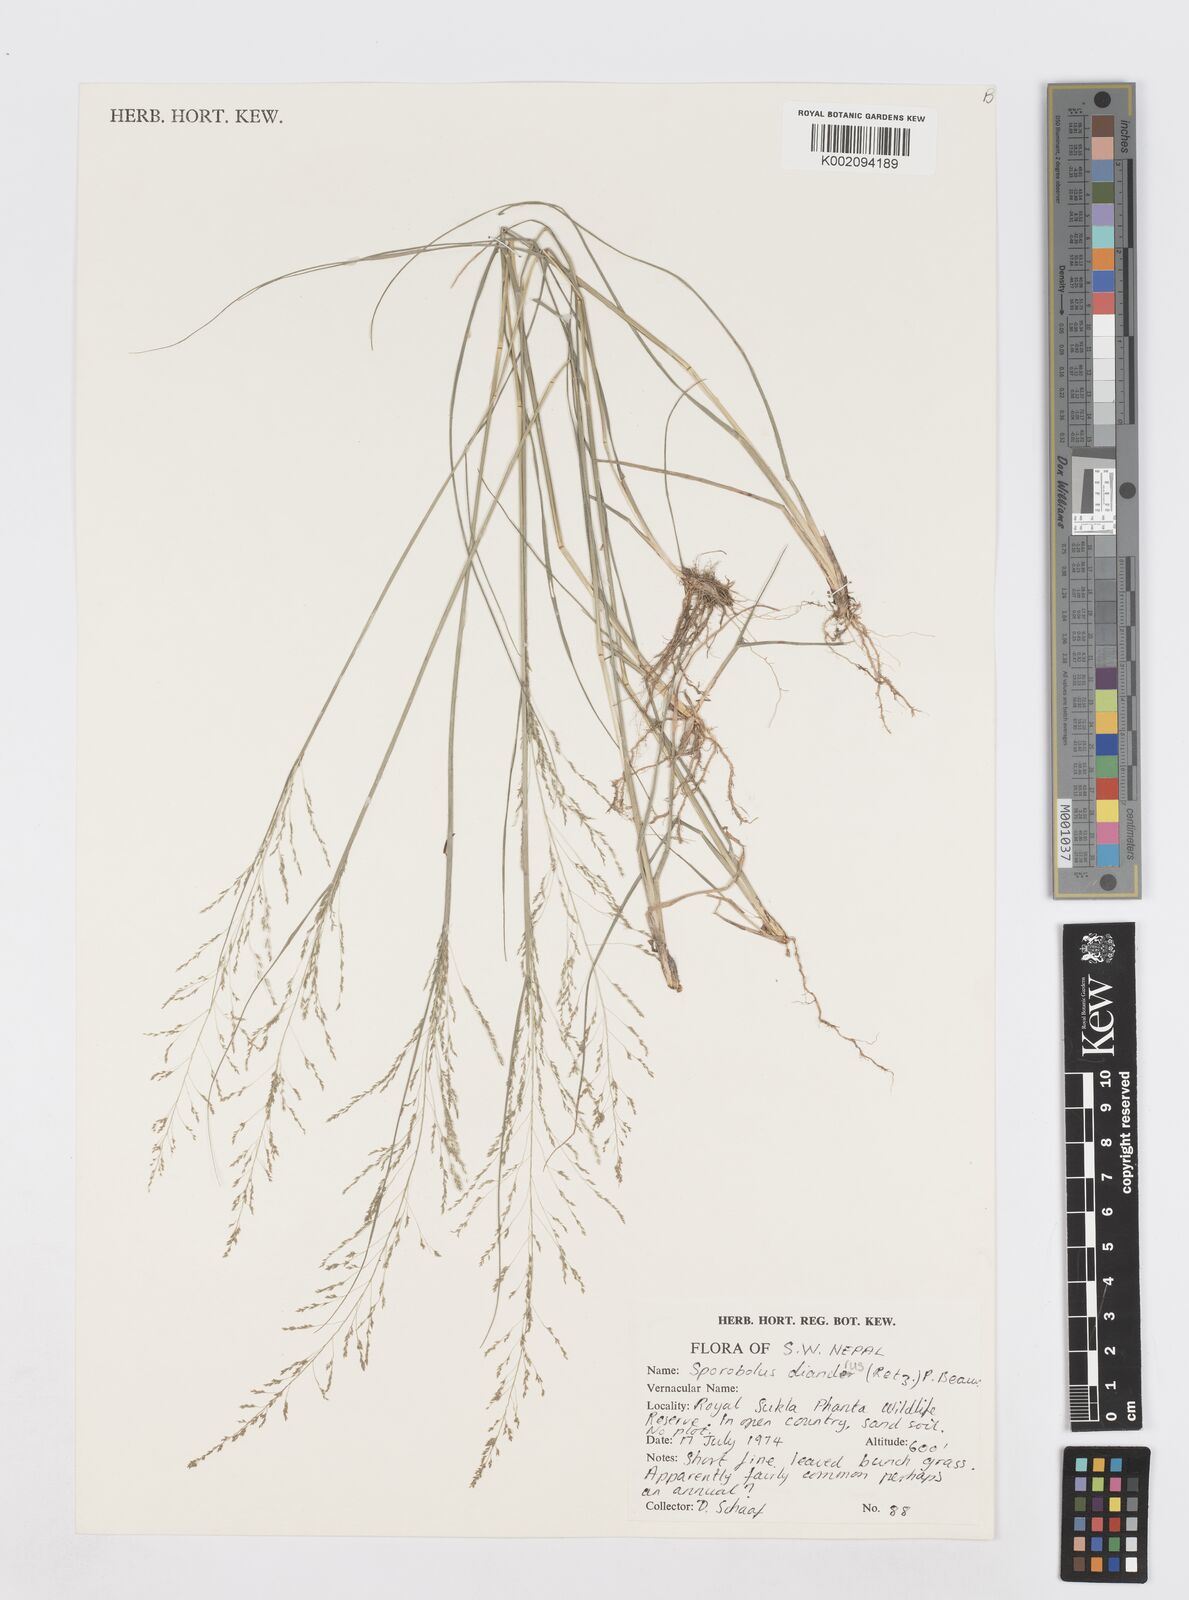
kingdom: Plantae
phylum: Tracheophyta
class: Liliopsida
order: Poales
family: Poaceae
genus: Sporobolus
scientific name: Sporobolus diandrus
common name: Tussock dropseed
